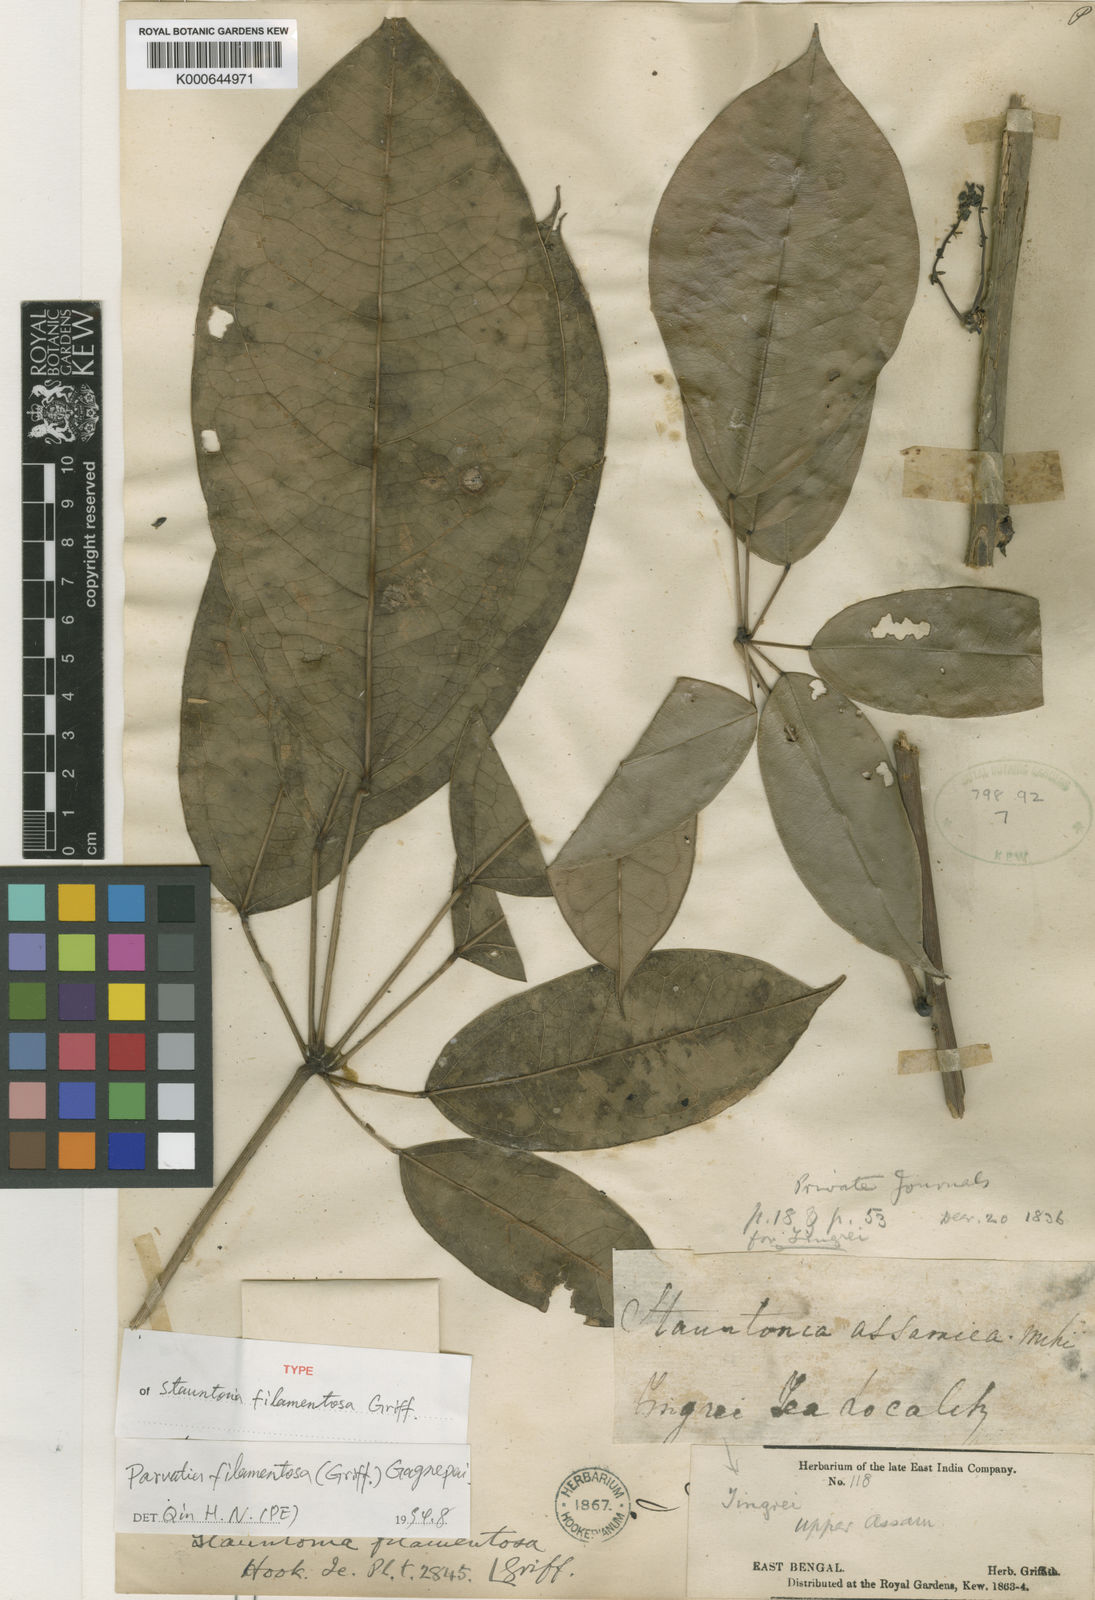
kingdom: Plantae
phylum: Tracheophyta
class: Magnoliopsida
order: Ranunculales
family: Lardizabalaceae
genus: Stauntonia
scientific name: Stauntonia filamentosa
